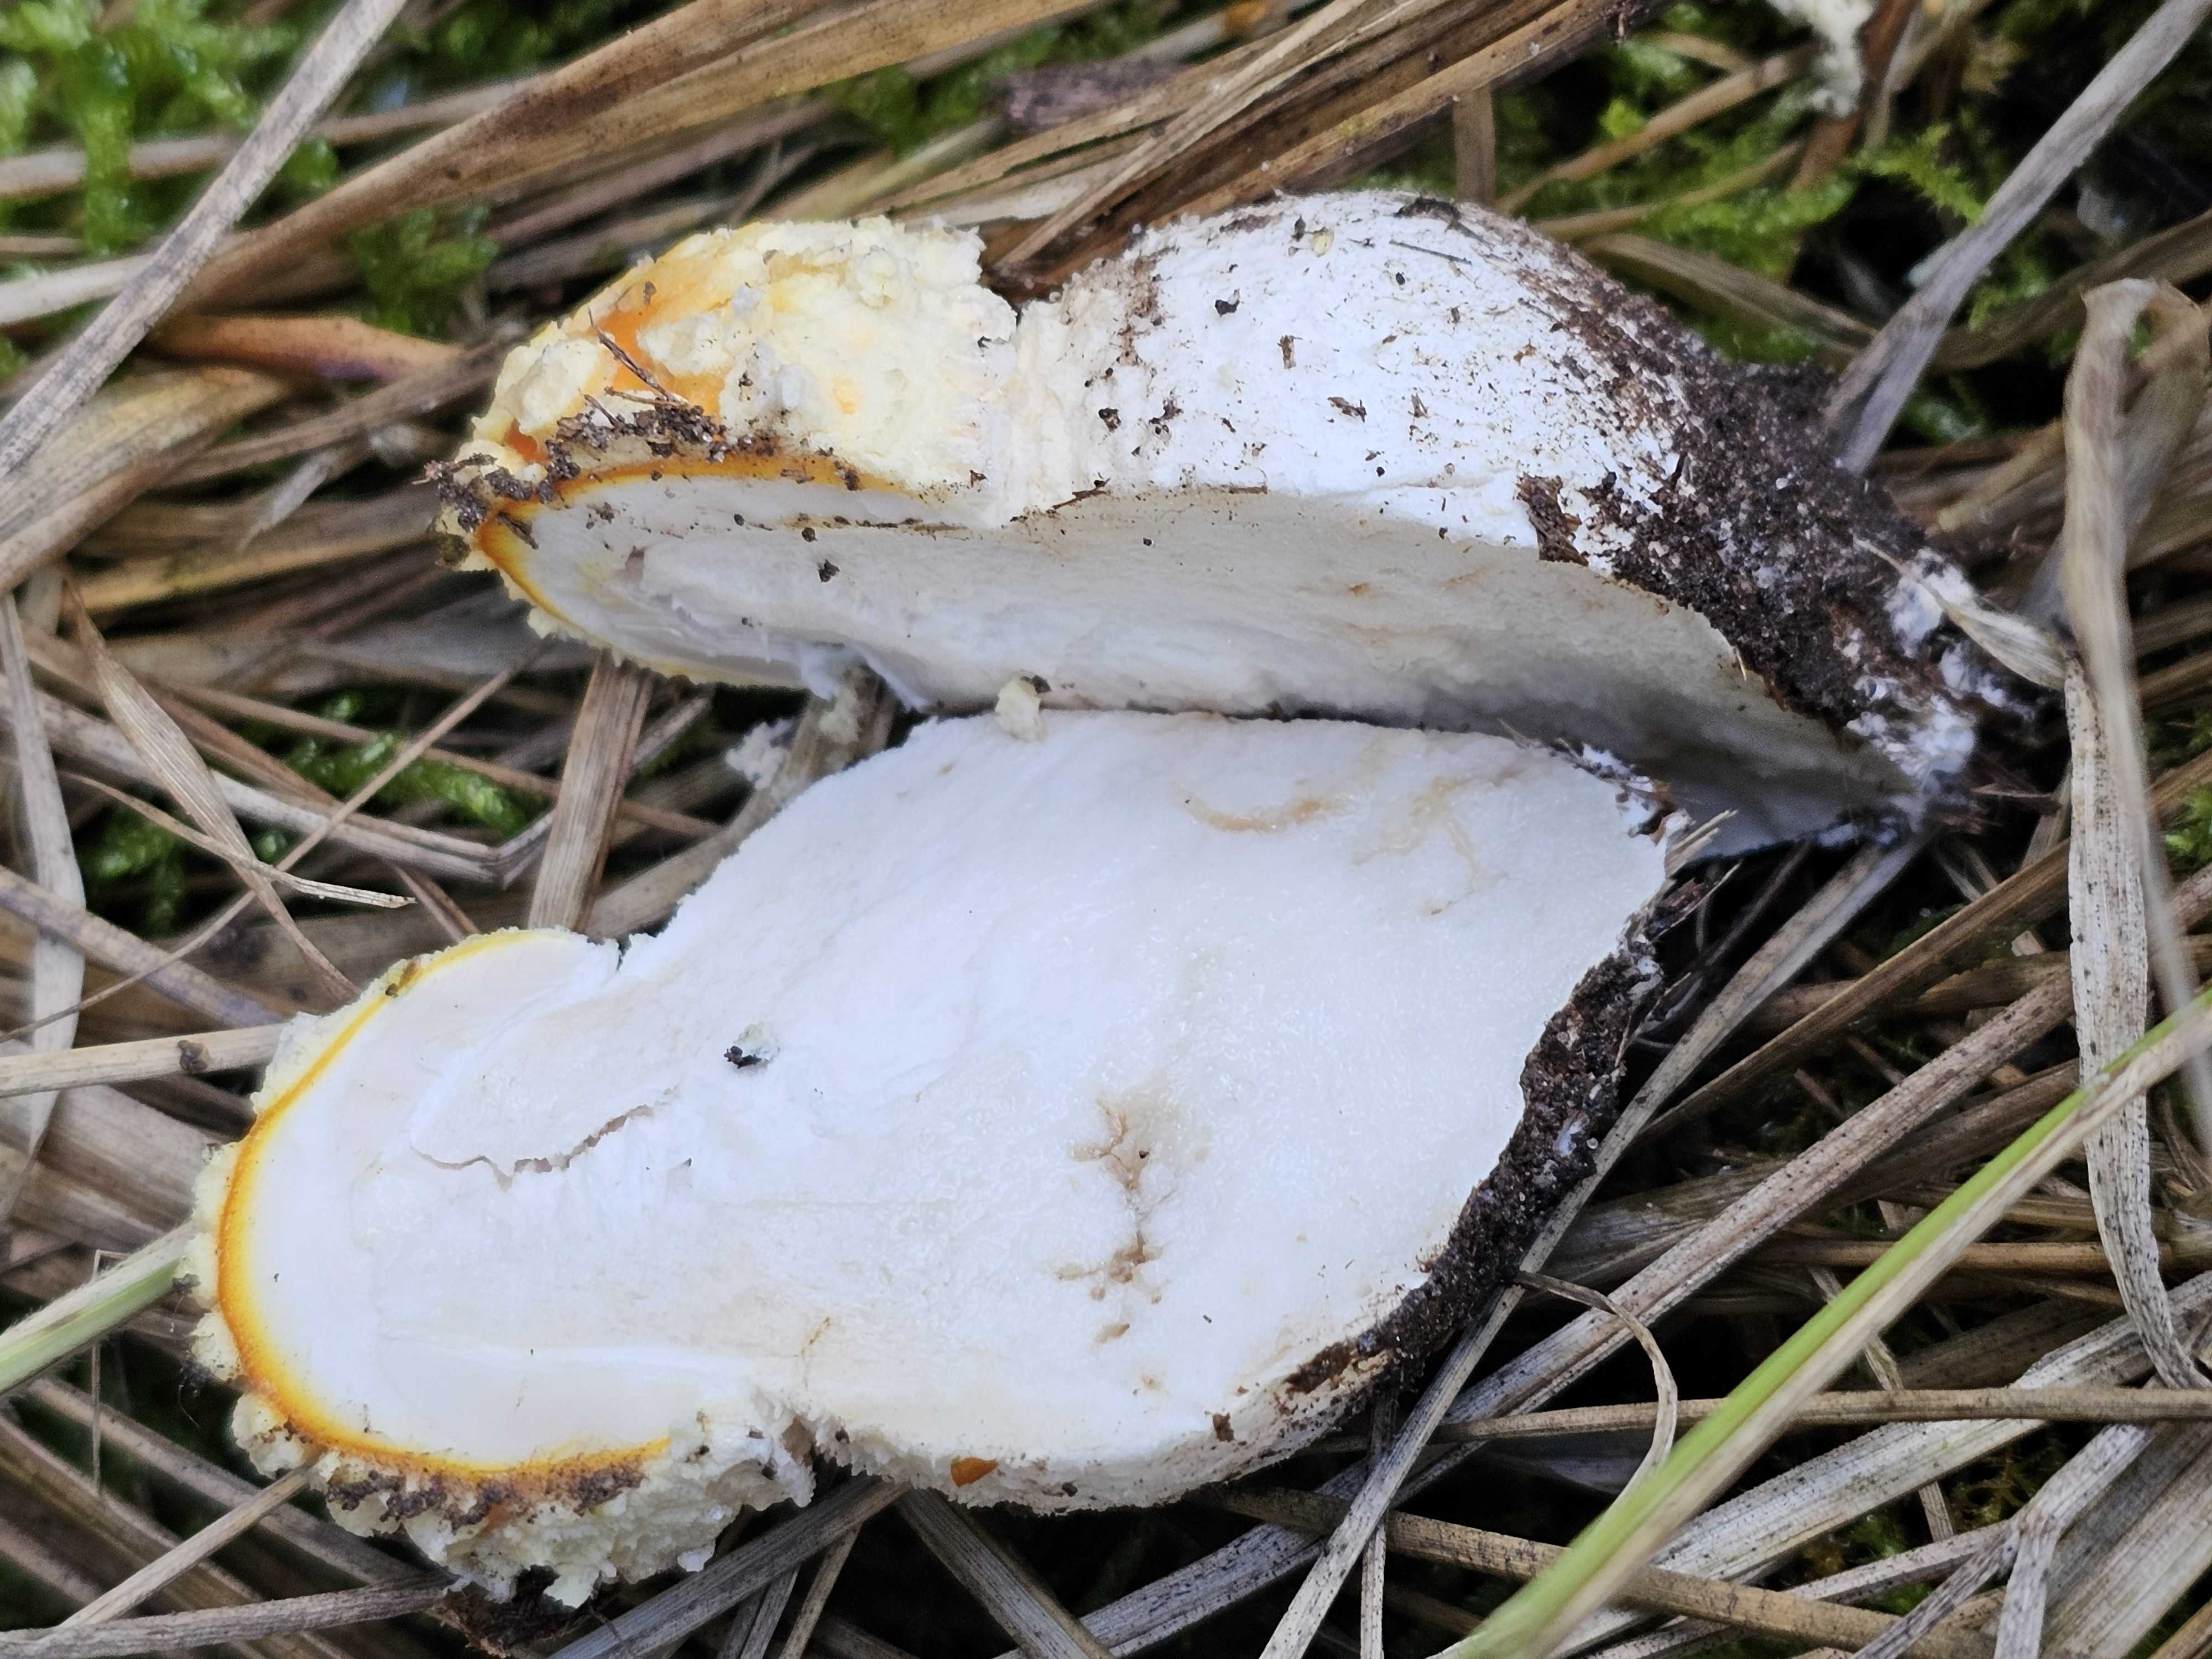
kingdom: Fungi
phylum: Basidiomycota
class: Agaricomycetes
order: Agaricales
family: Amanitaceae
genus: Amanita
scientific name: Amanita muscaria
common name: rød fluesvamp
